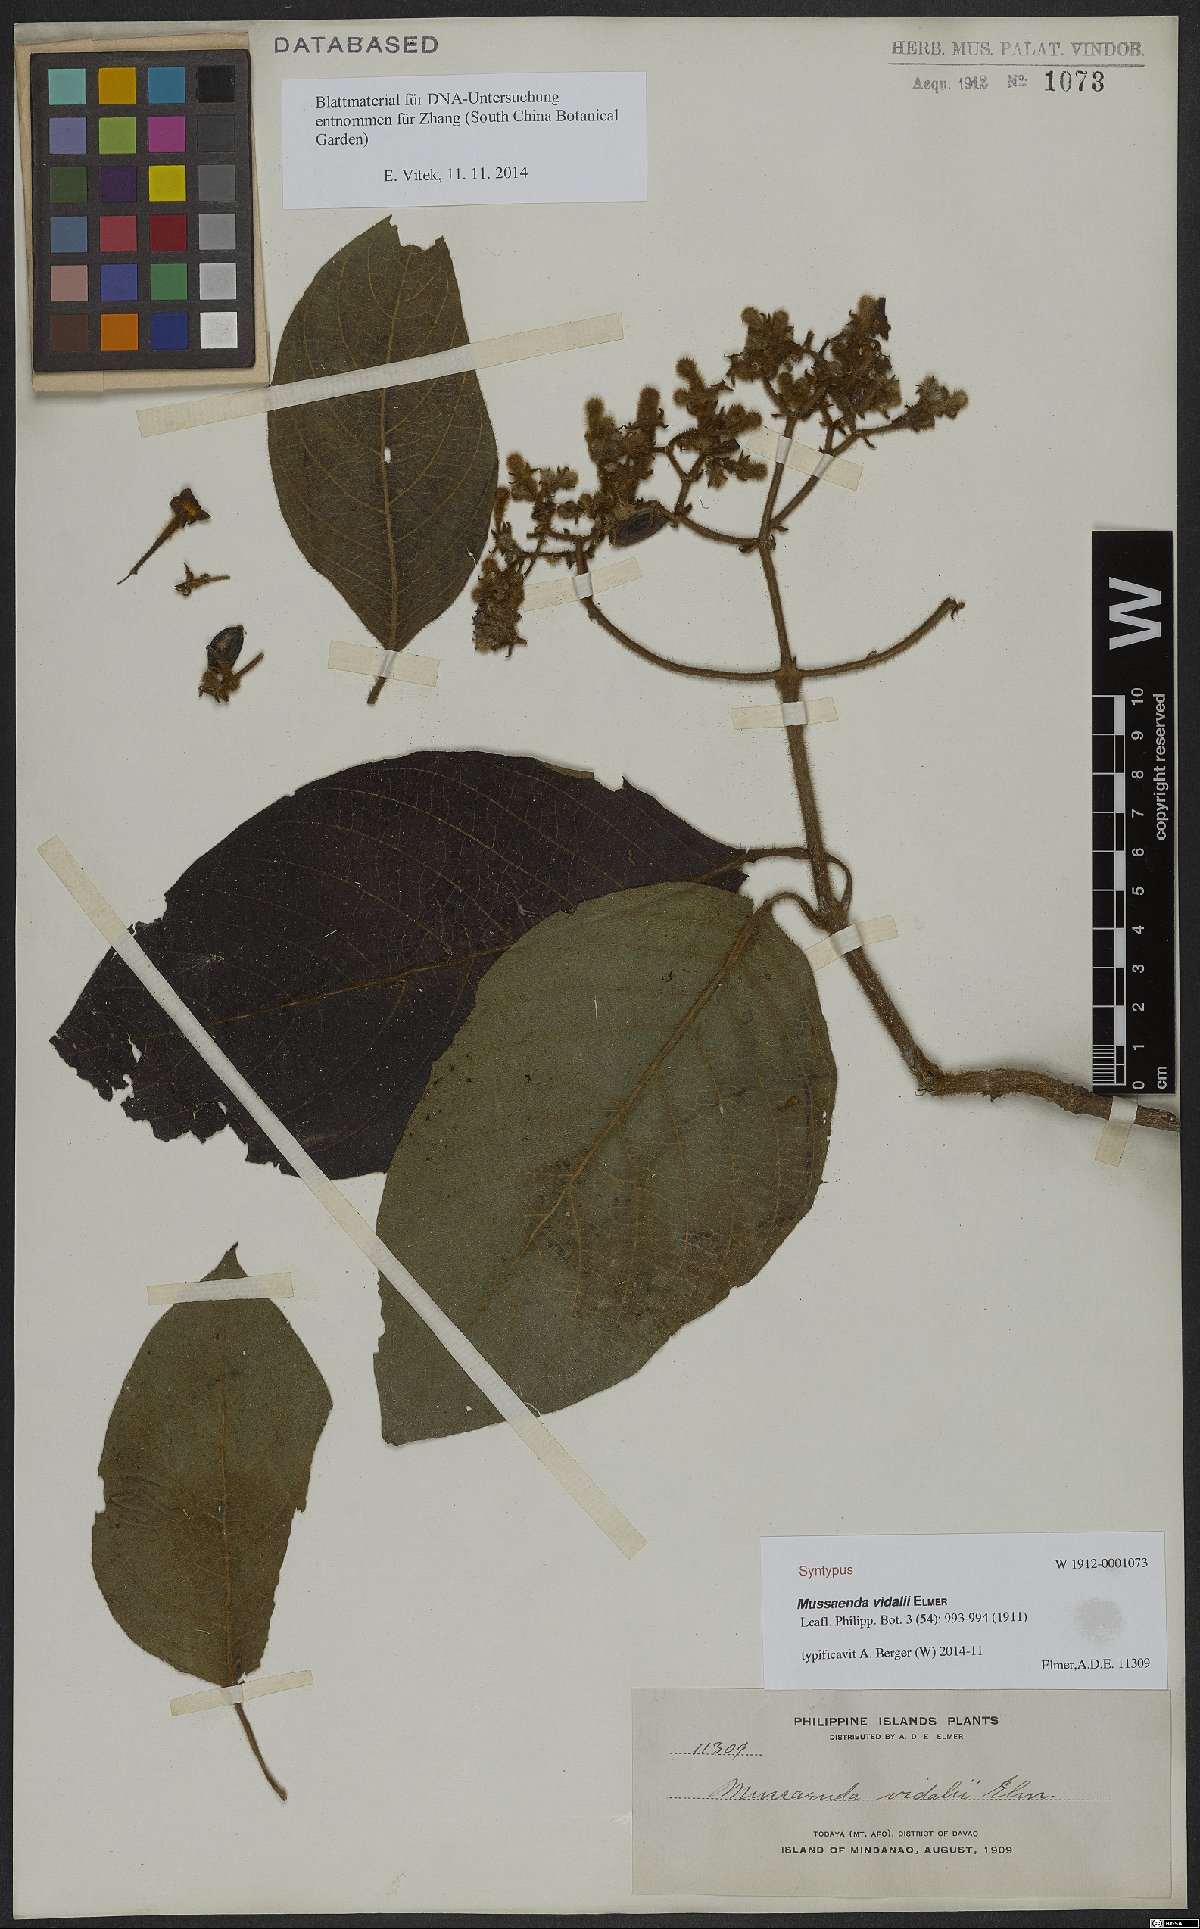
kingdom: Plantae
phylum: Tracheophyta
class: Magnoliopsida
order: Gentianales
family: Rubiaceae
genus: Mussaenda
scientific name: Mussaenda vidalii
